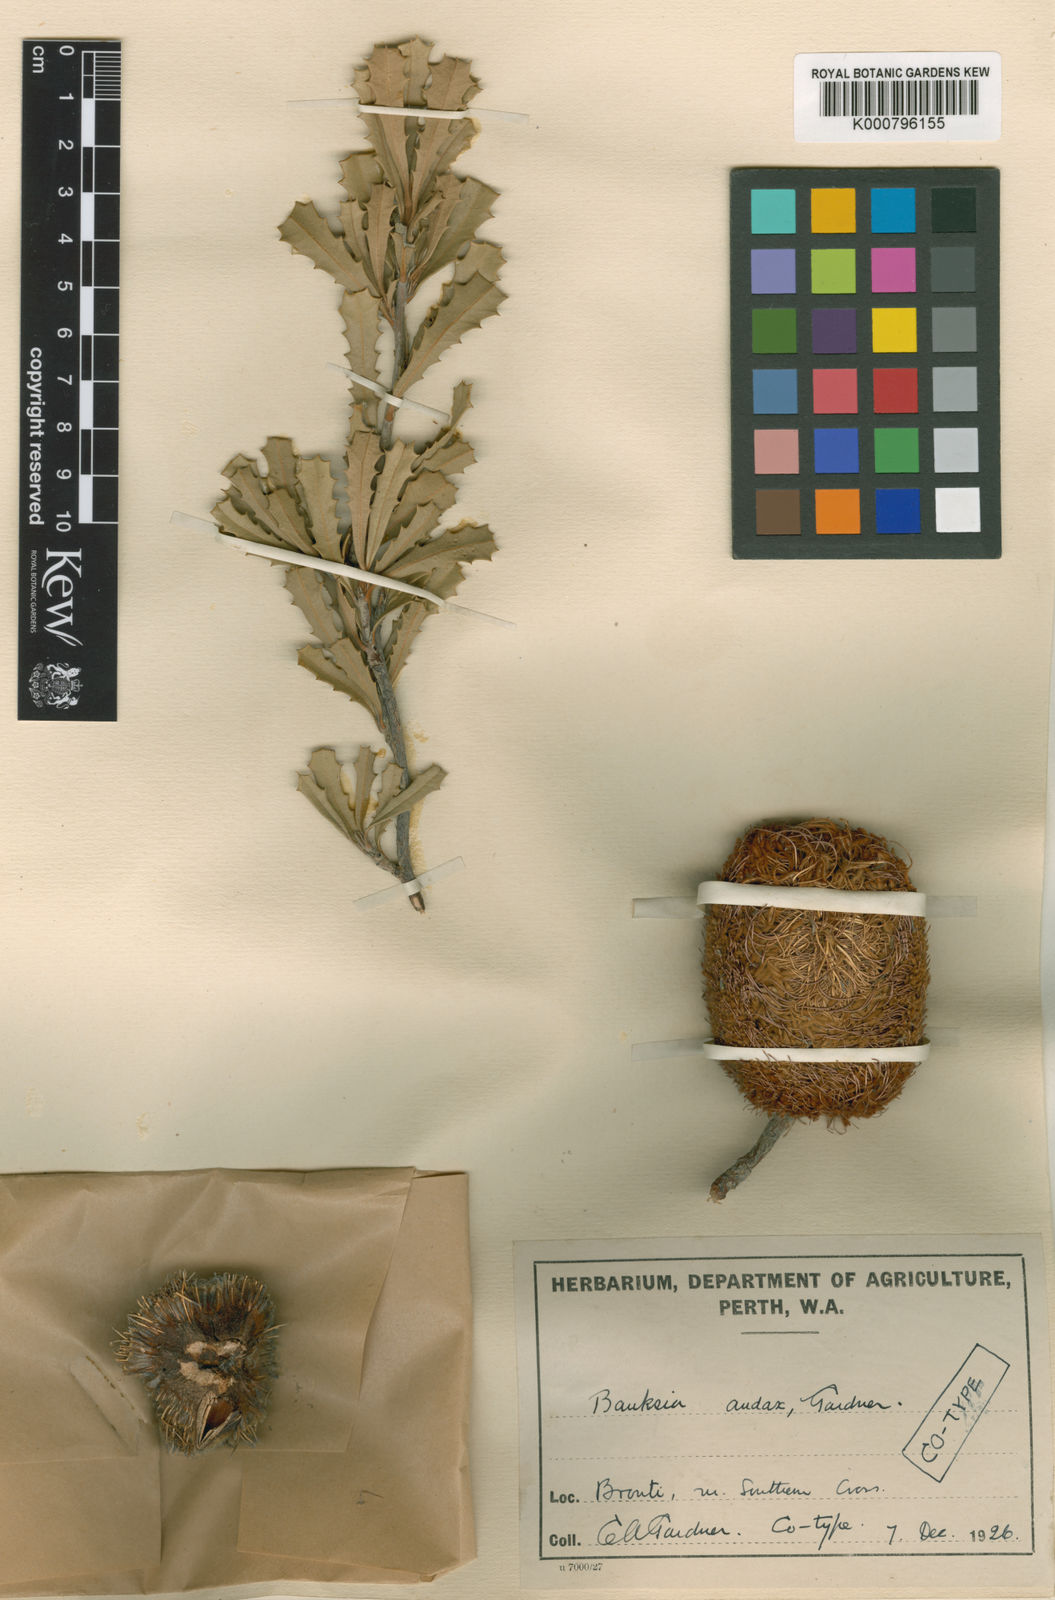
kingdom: Plantae
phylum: Tracheophyta
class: Magnoliopsida
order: Proteales
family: Proteaceae
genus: Banksia
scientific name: Banksia audax
